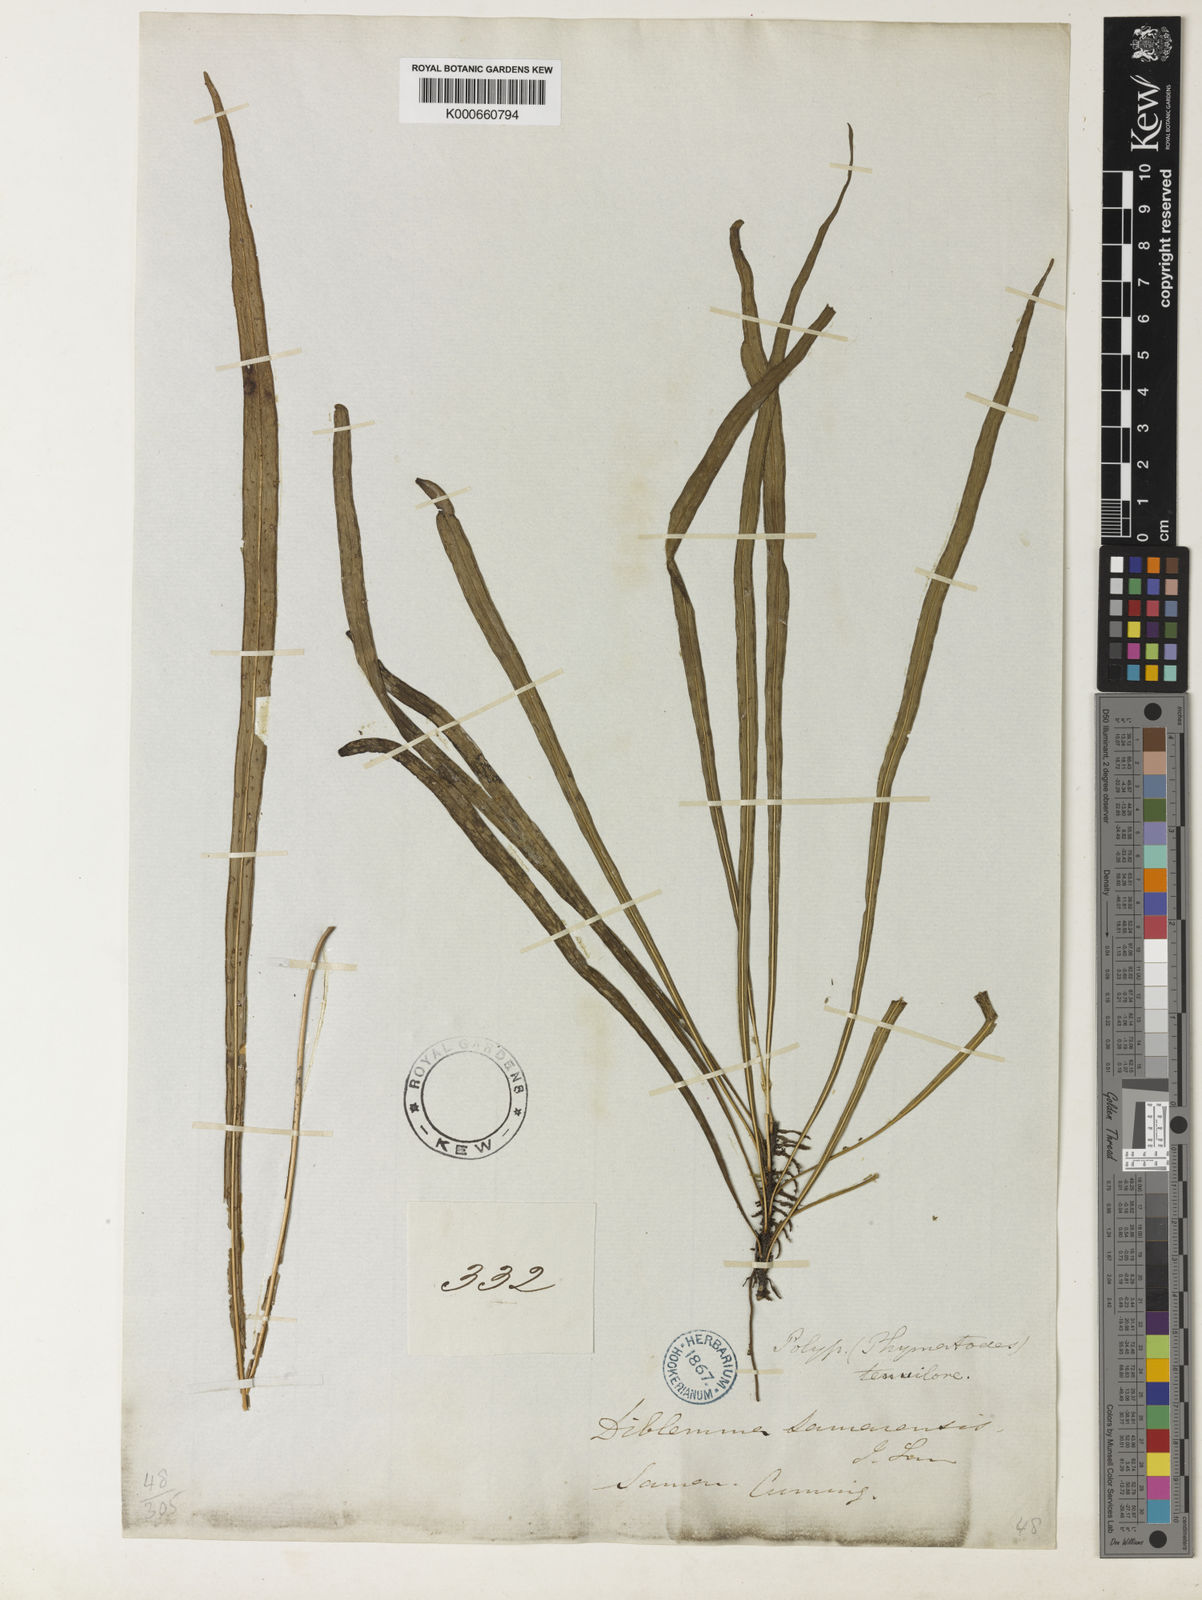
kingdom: Plantae
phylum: Tracheophyta
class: Polypodiopsida
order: Polypodiales
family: Polypodiaceae
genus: Microsorum
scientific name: Microsorum samarense
